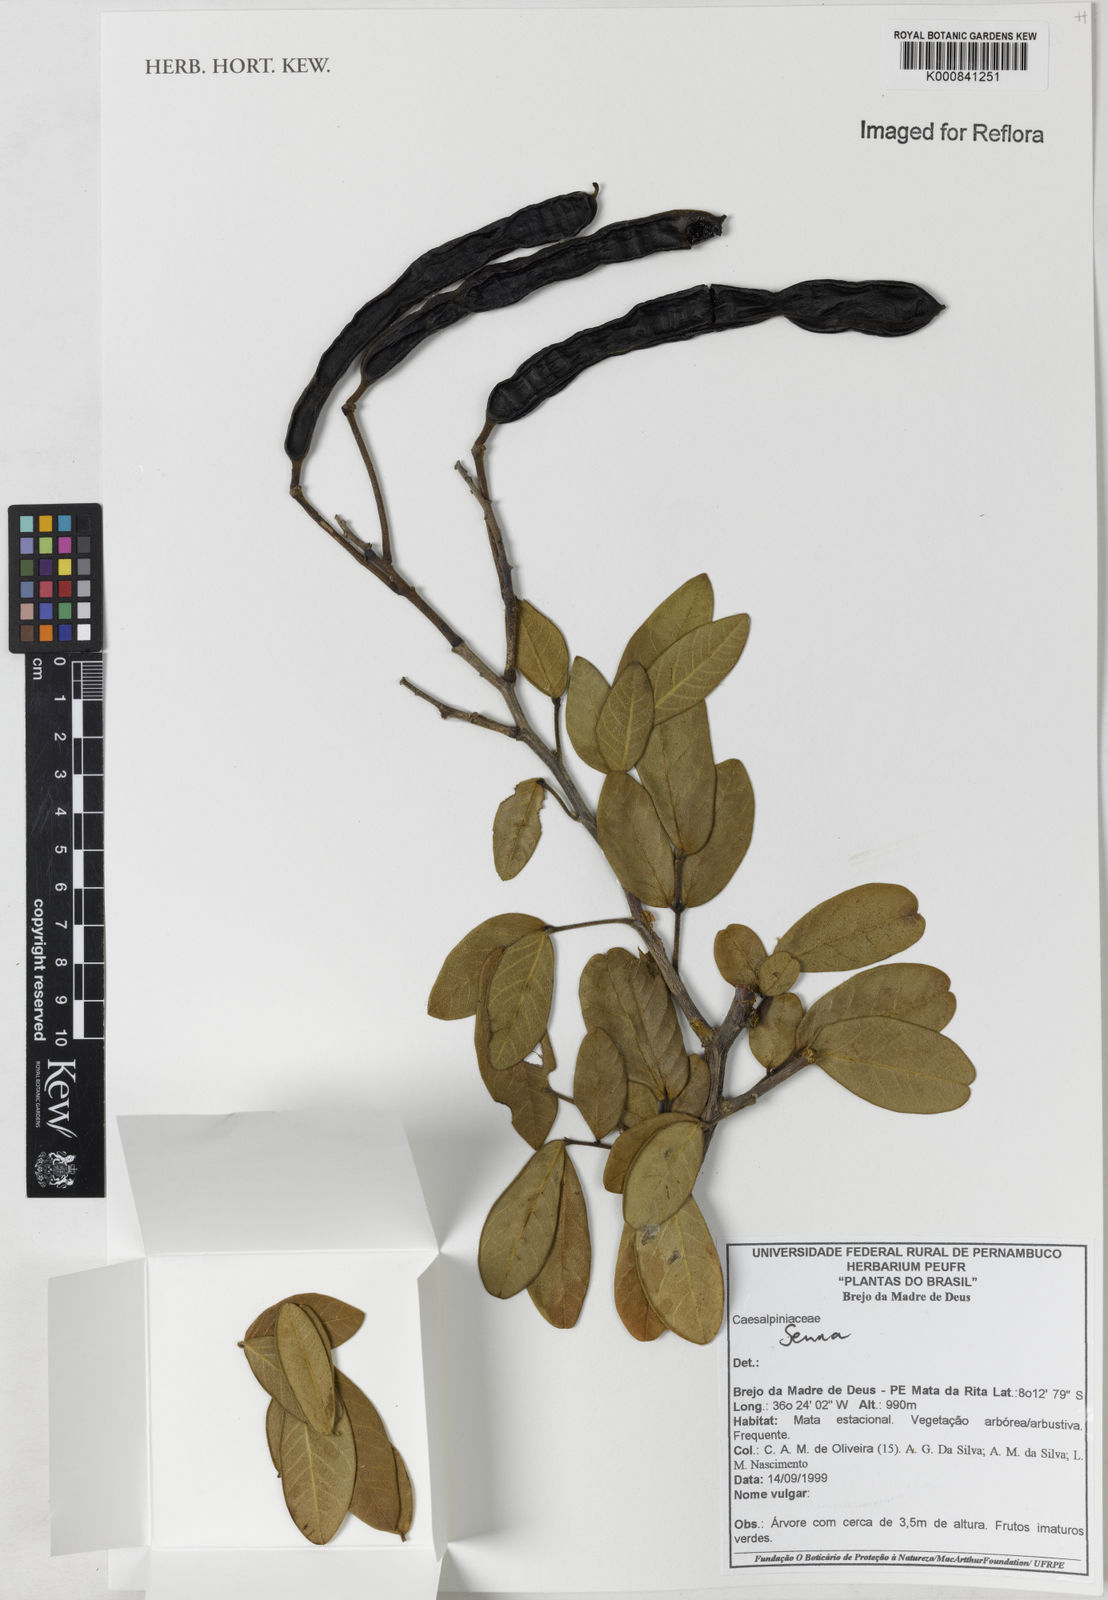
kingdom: Plantae
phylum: Tracheophyta
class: Magnoliopsida
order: Fabales
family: Fabaceae
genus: Senna
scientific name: Senna macranthera
